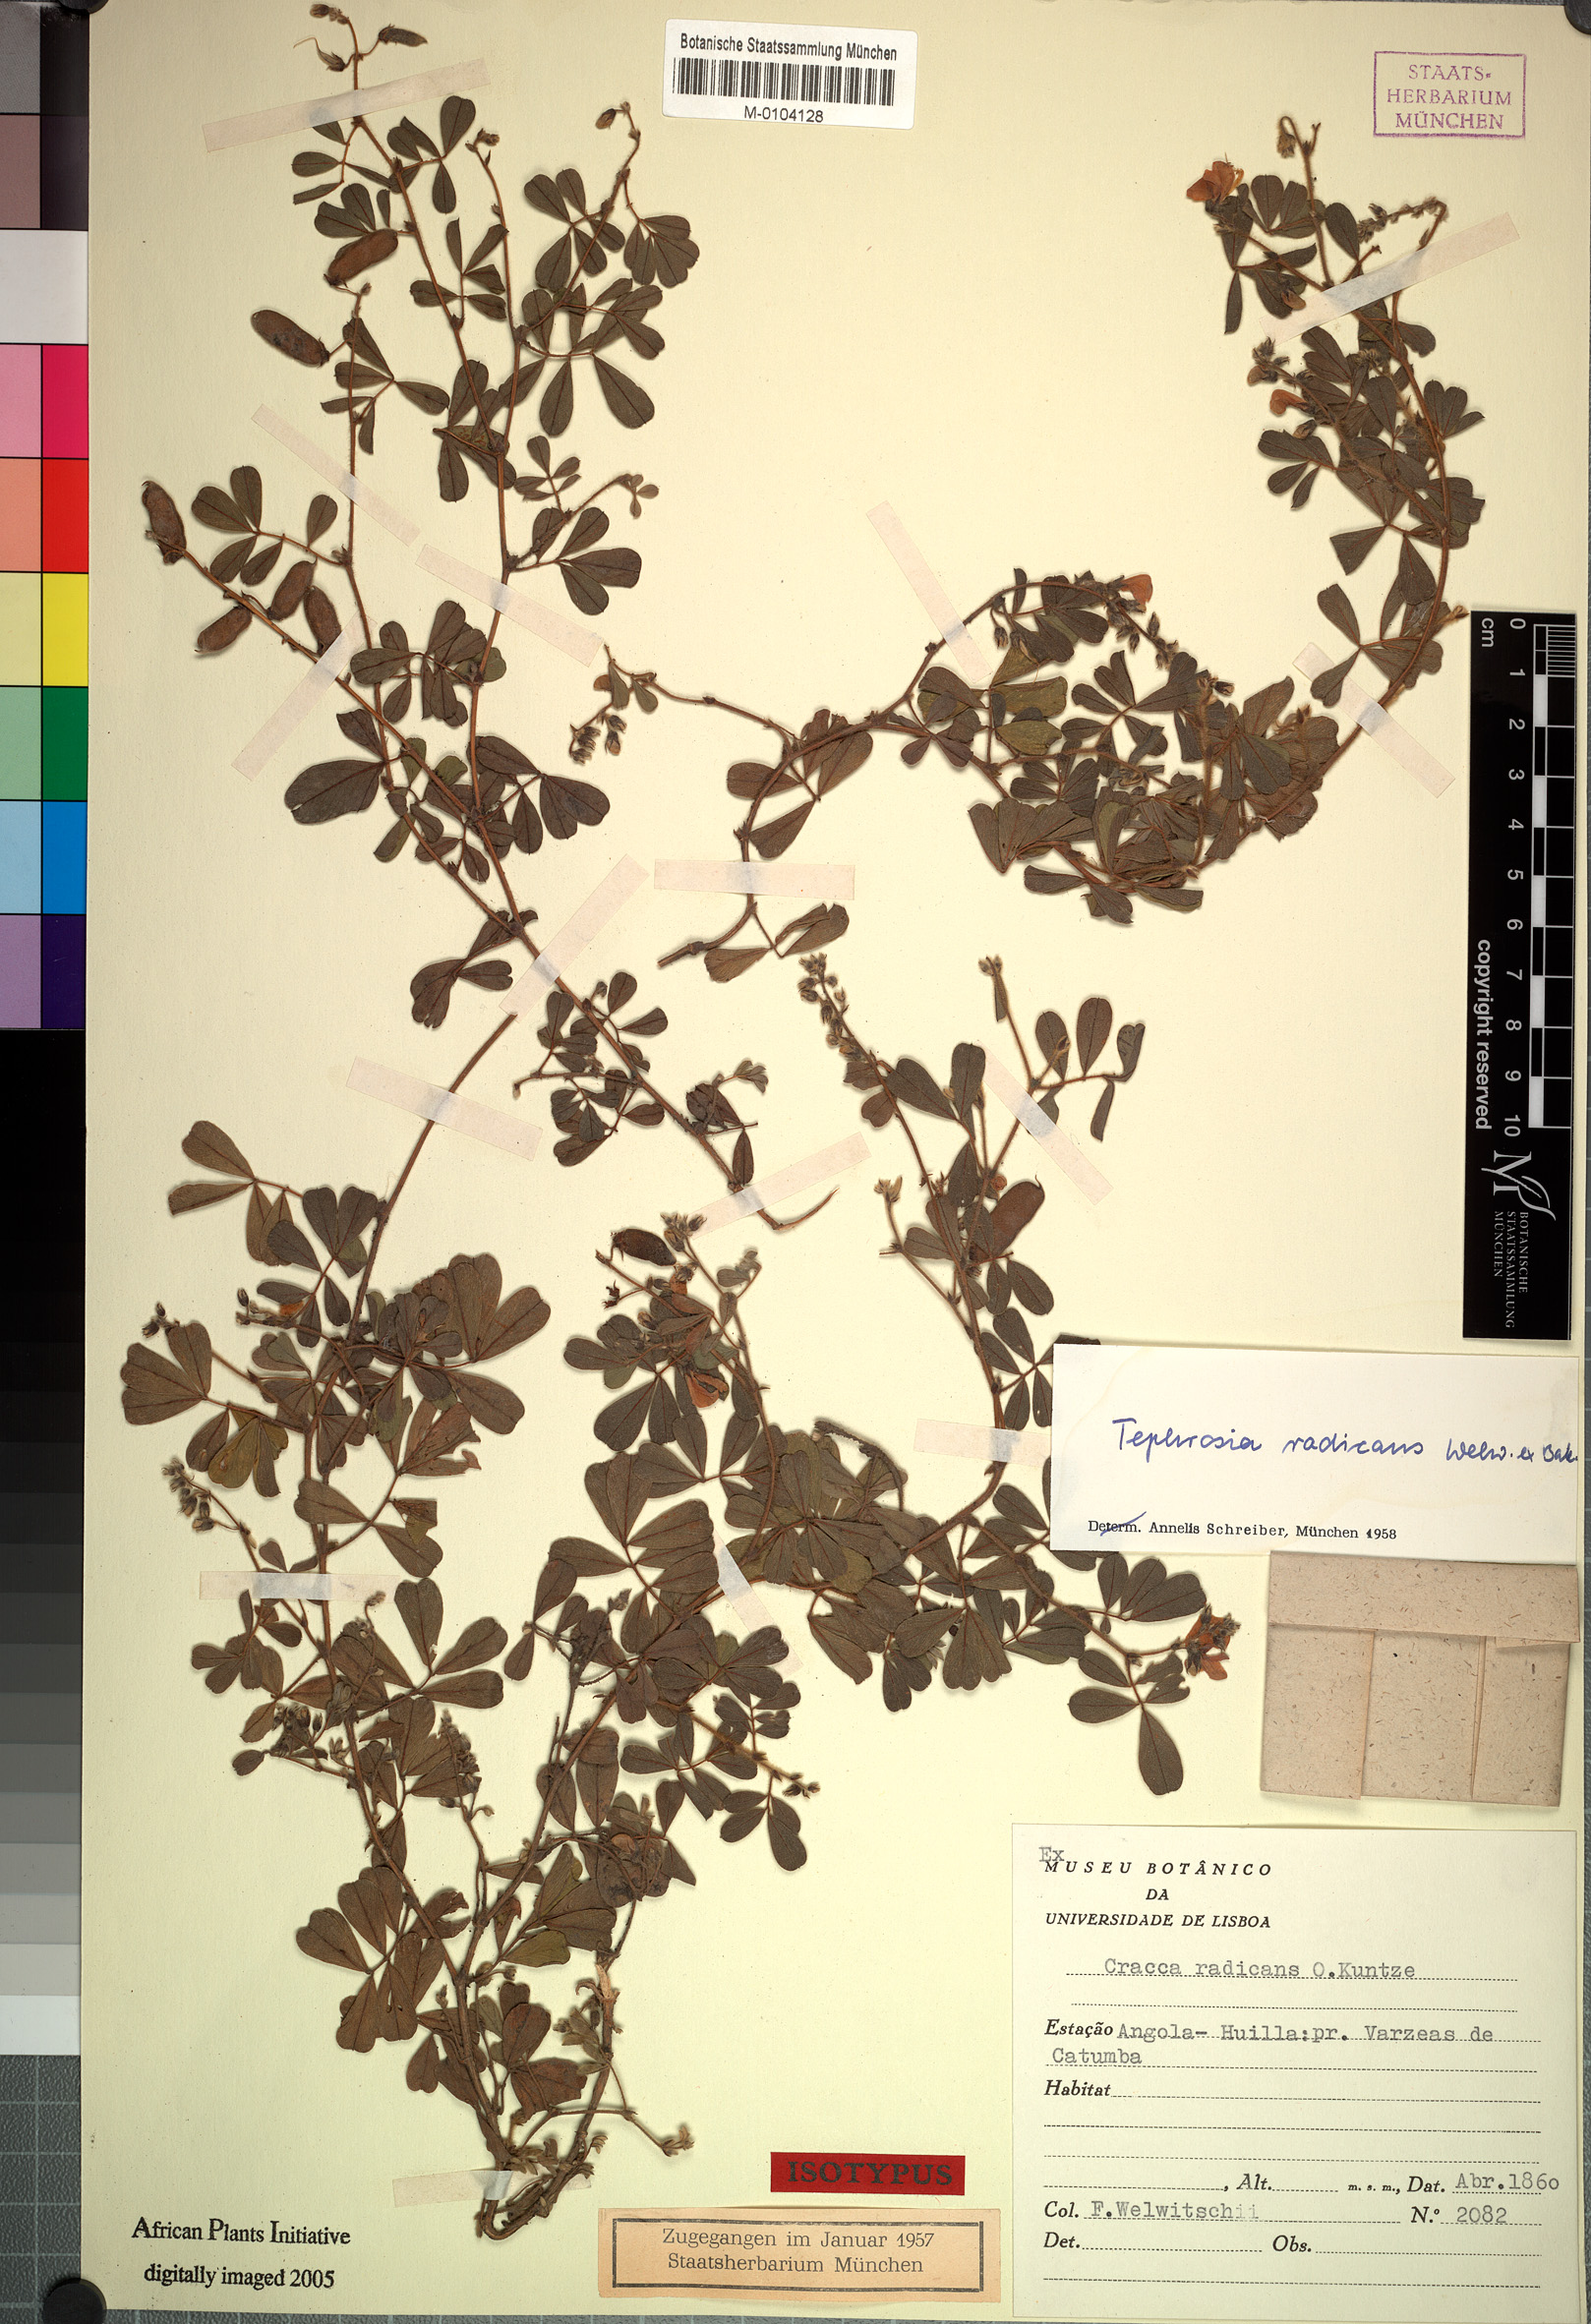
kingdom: Plantae
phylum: Tracheophyta
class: Magnoliopsida
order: Fabales
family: Fabaceae
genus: Tephrosia
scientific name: Tephrosia radicans
